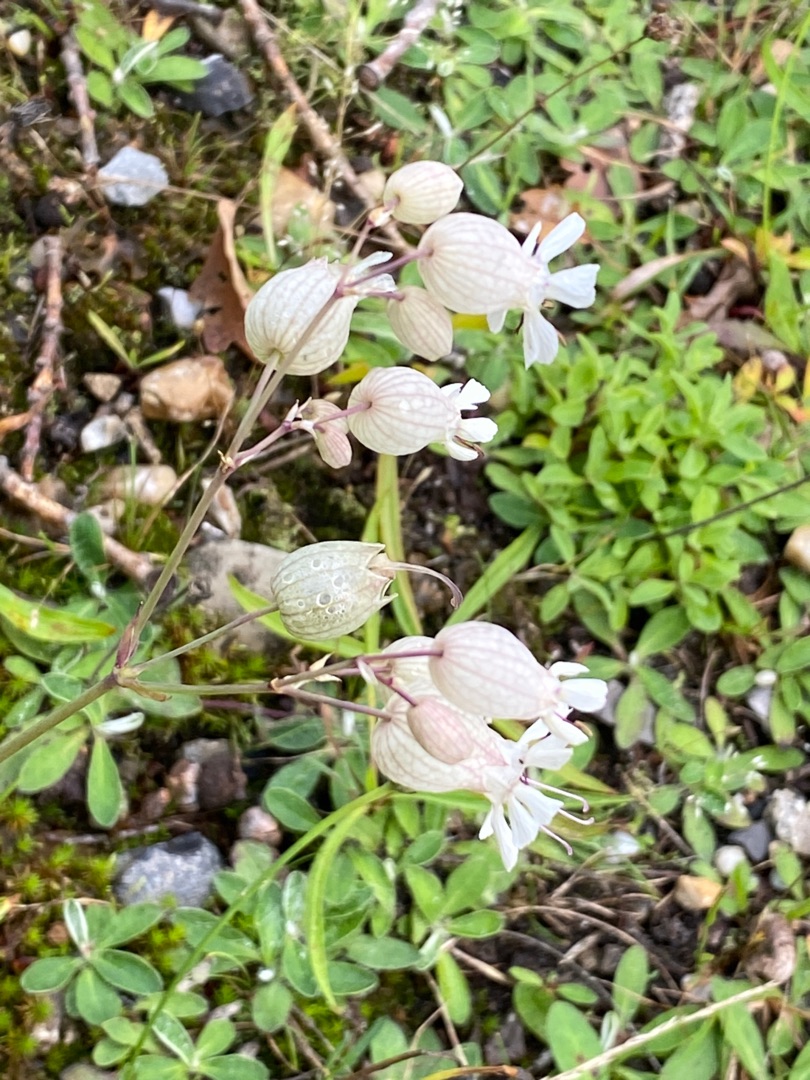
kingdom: Plantae
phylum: Tracheophyta
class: Magnoliopsida
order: Caryophyllales
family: Caryophyllaceae
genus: Silene
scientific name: Silene vulgaris
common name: Blæresmælde
